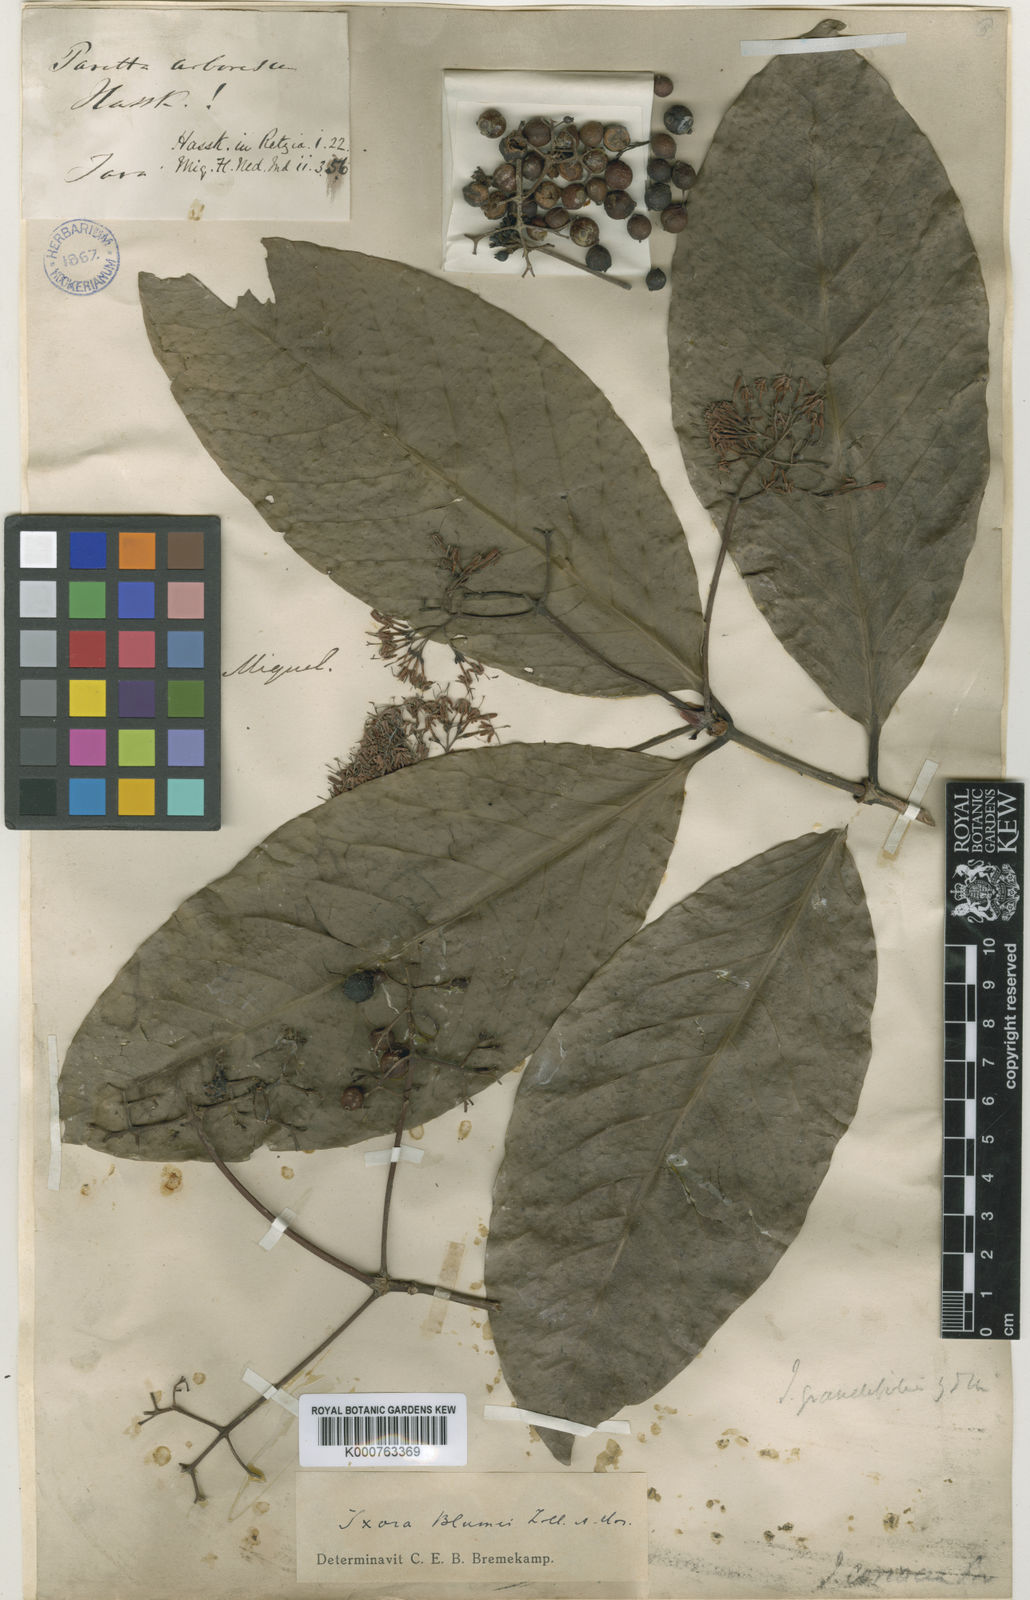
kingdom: Plantae
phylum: Tracheophyta
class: Magnoliopsida
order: Gentianales
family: Rubiaceae
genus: Ixora
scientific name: Ixora grandifolia
